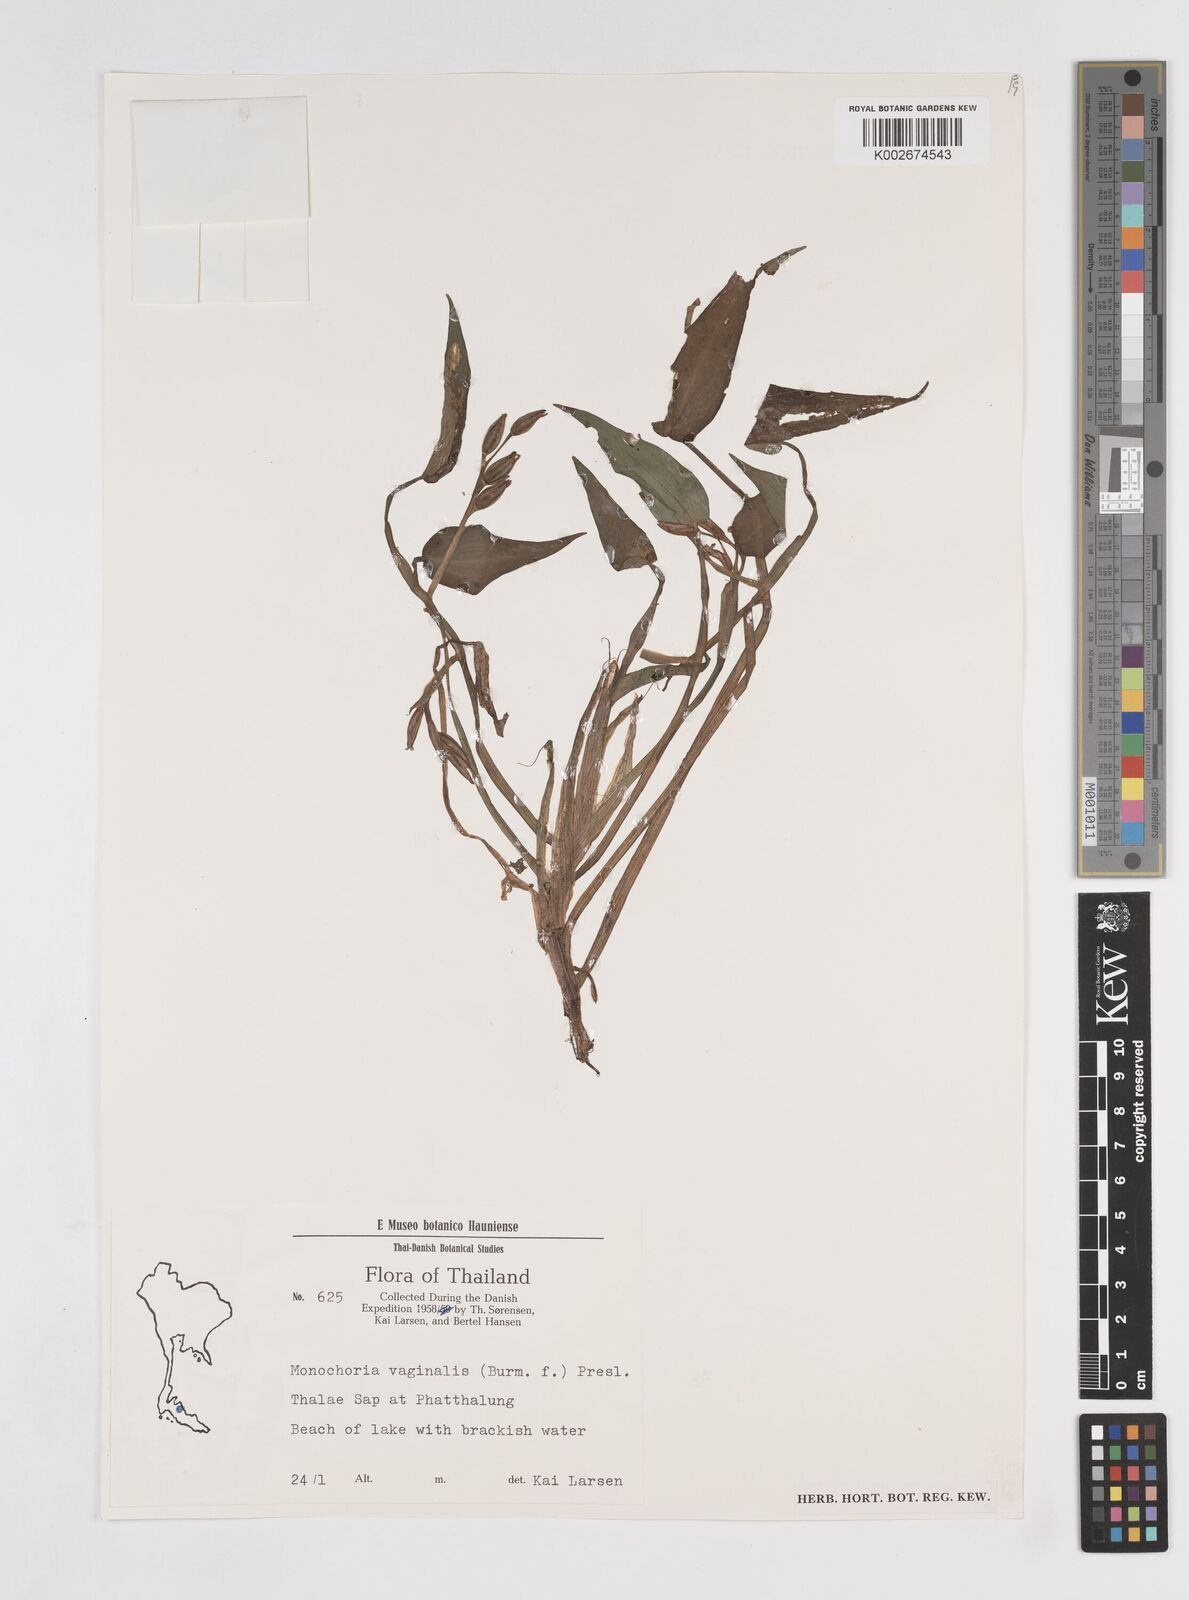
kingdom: Plantae
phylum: Tracheophyta
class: Liliopsida
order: Commelinales
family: Pontederiaceae
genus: Pontederia
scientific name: Pontederia vaginalis
